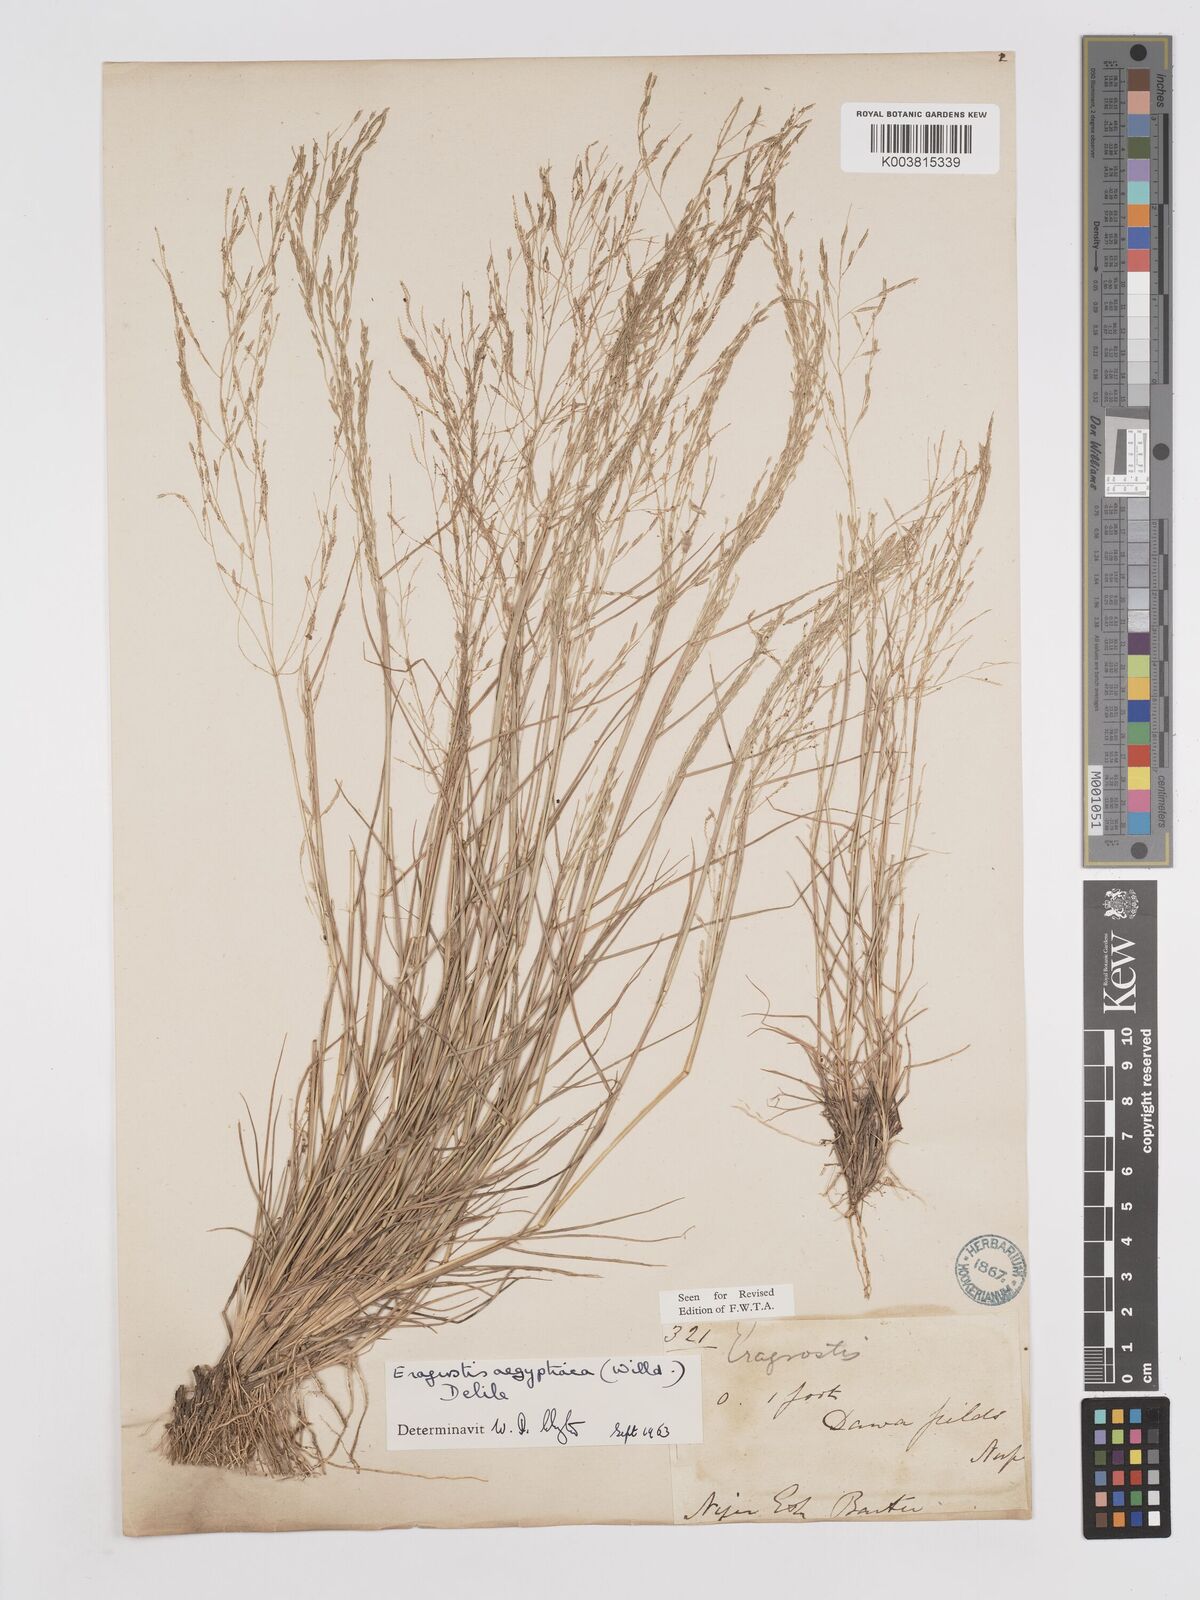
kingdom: Plantae
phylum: Tracheophyta
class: Liliopsida
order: Poales
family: Poaceae
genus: Eragrostis
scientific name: Eragrostis aegyptiaca
